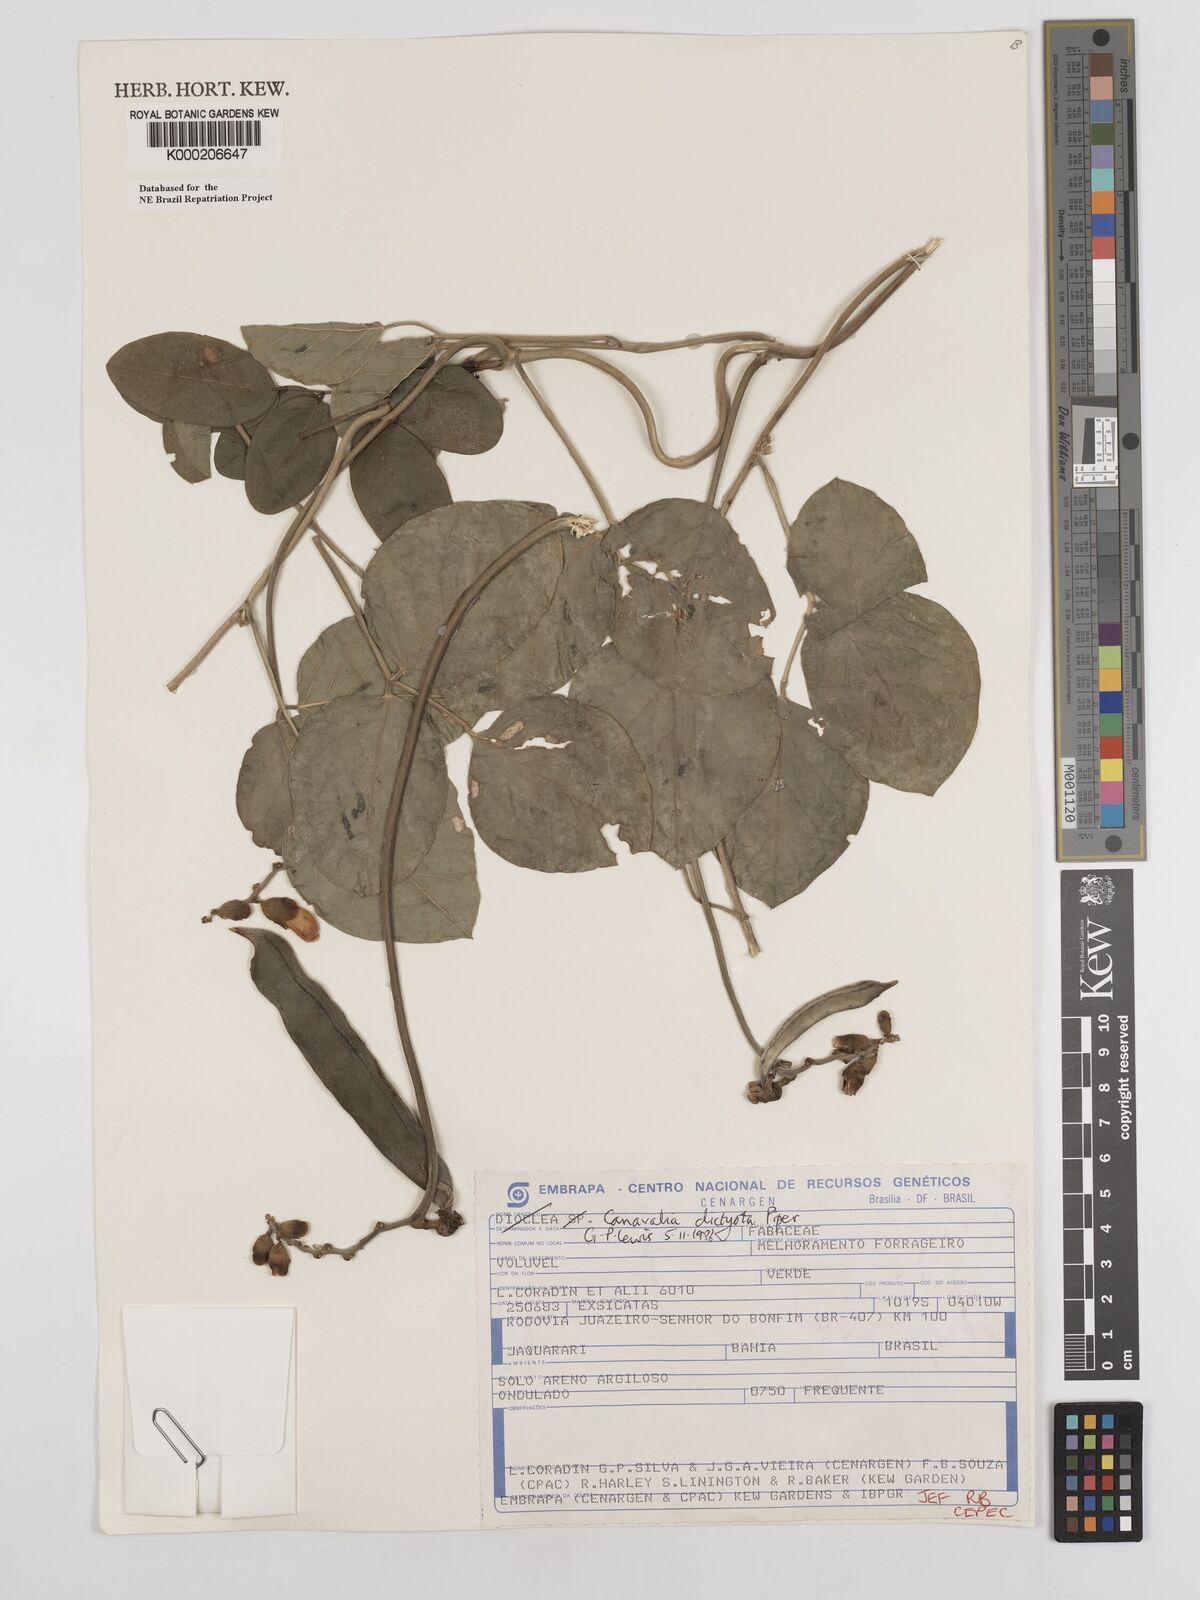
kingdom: Plantae
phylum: Tracheophyta
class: Magnoliopsida
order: Fabales
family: Fabaceae
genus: Canavalia
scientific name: Canavalia brasiliensis
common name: Barbicou-bean
